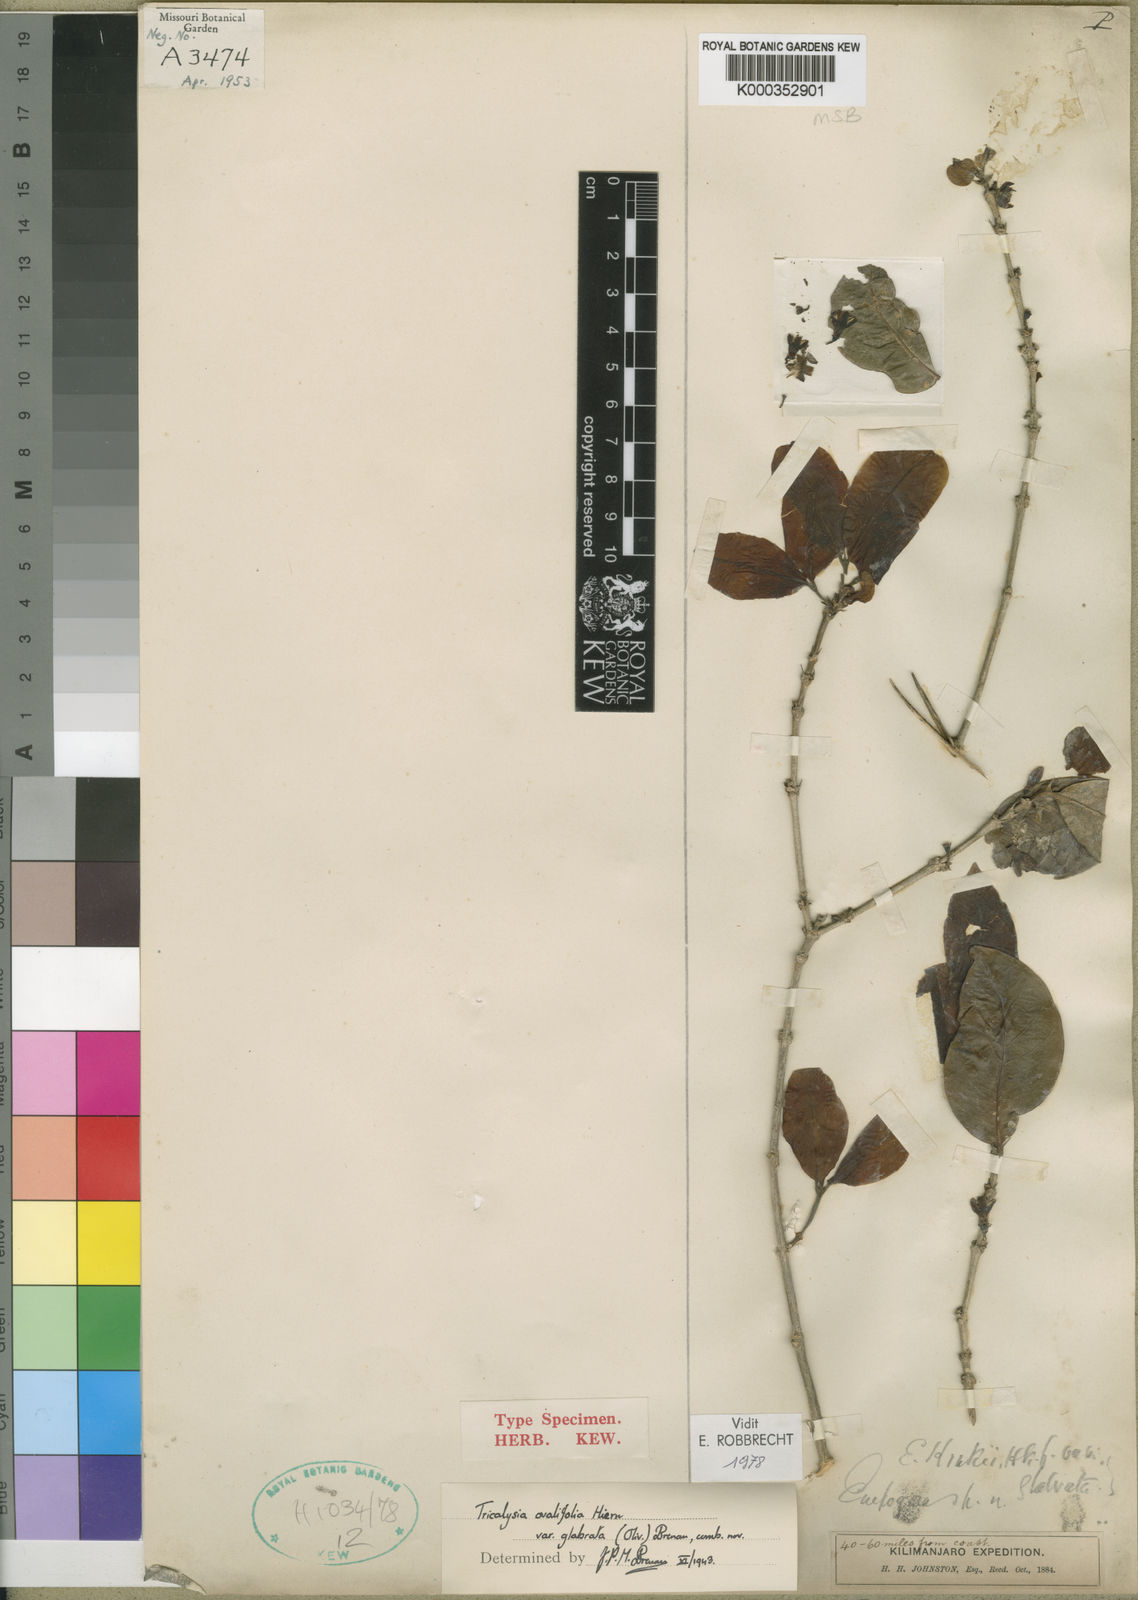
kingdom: Plantae
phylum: Tracheophyta
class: Magnoliopsida
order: Gentianales
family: Rubiaceae
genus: Empogona
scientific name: Empogona ovalifolia
